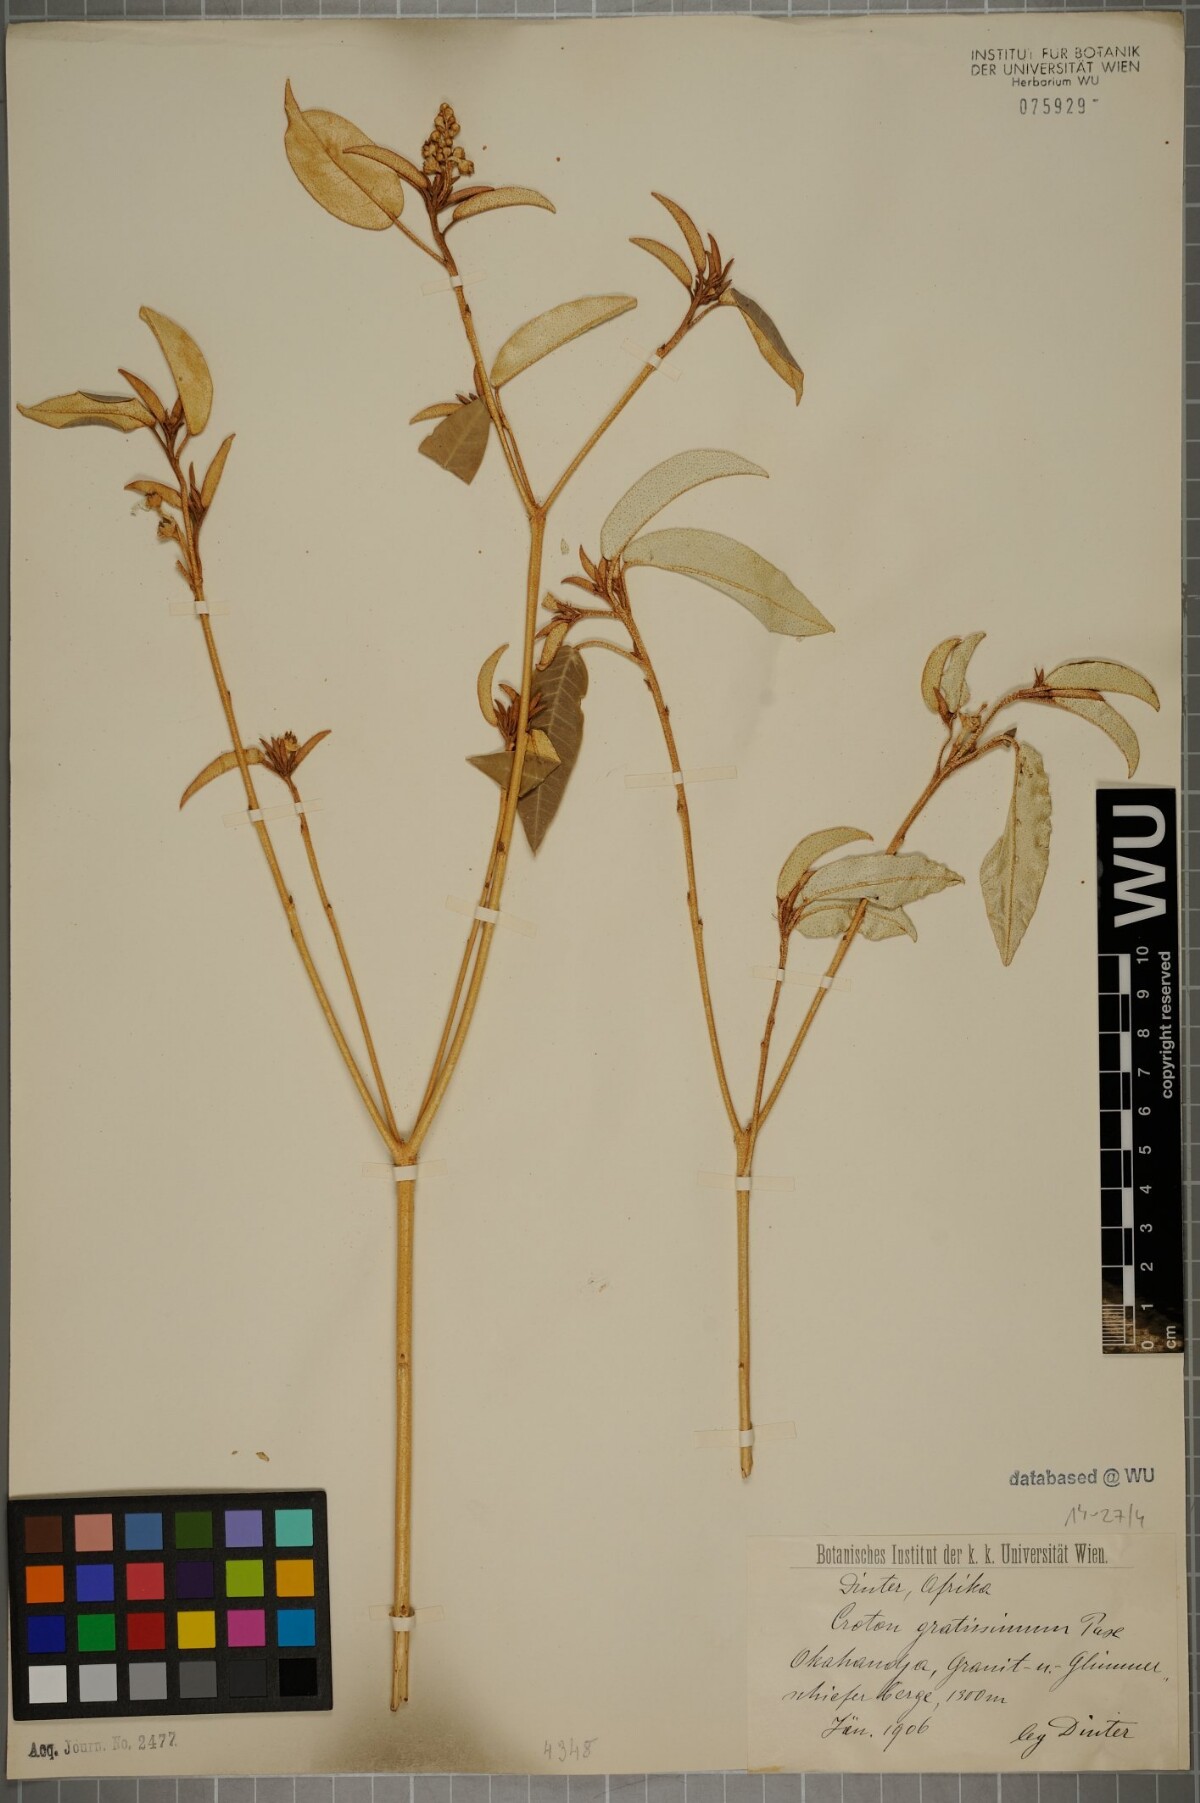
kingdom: Plantae
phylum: Tracheophyta
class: Magnoliopsida
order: Malpighiales
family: Euphorbiaceae
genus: Croton
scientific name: Croton gratissimus
